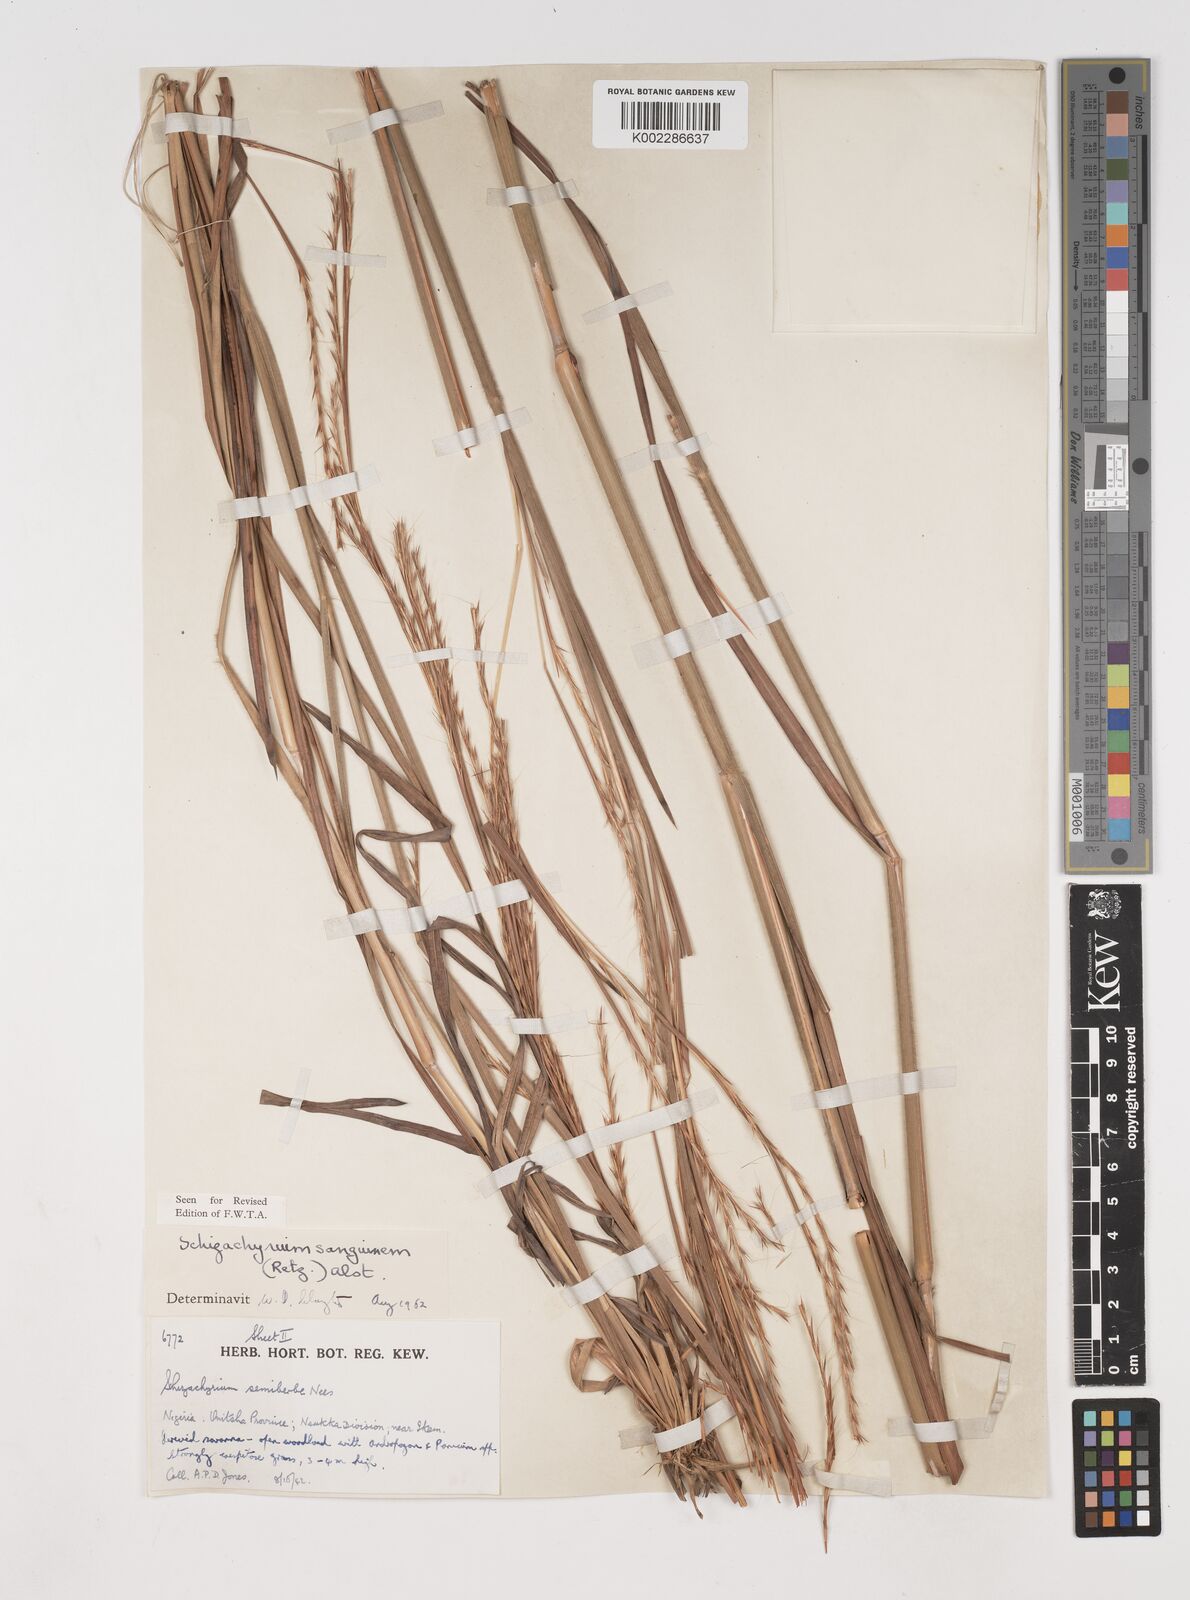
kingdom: Plantae
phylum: Tracheophyta
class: Liliopsida
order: Poales
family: Poaceae
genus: Schizachyrium
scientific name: Schizachyrium sanguineum
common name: Crimson bluestem
